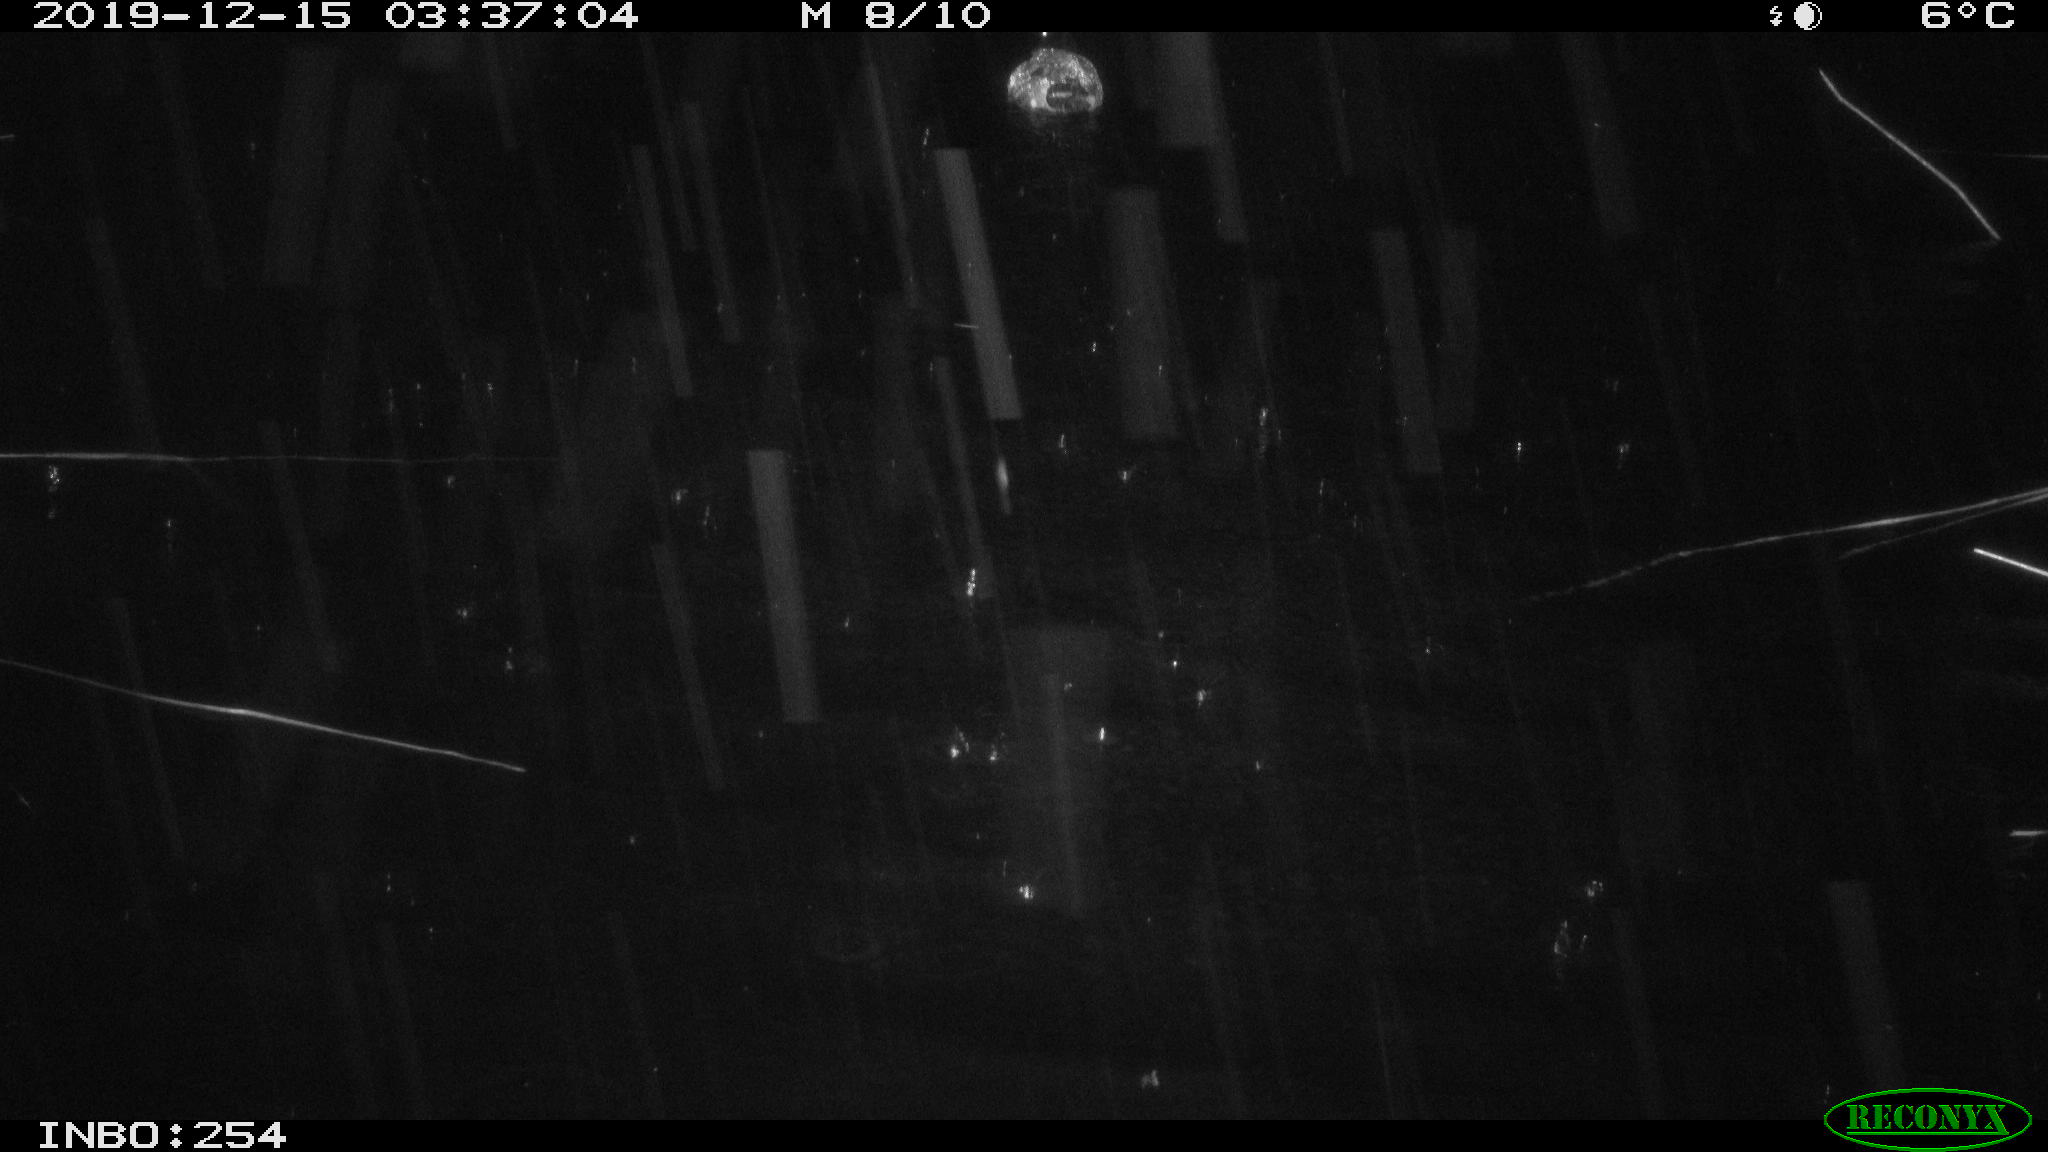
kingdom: Animalia
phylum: Chordata
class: Aves
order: Anseriformes
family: Anatidae
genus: Anas
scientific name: Anas platyrhynchos
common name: Mallard
